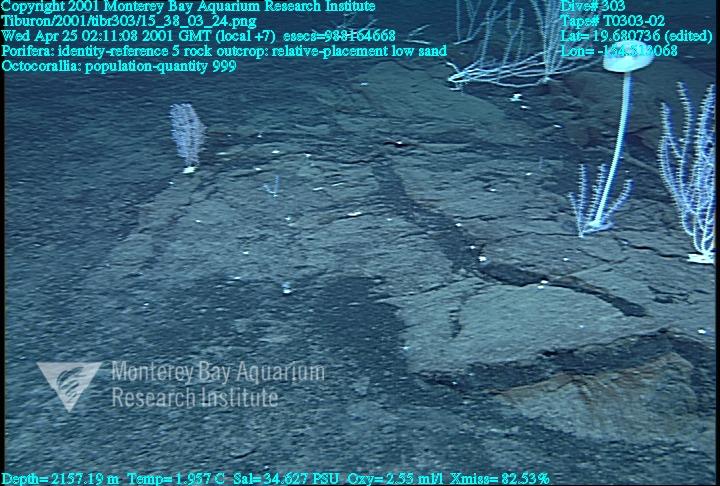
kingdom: Animalia
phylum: Porifera
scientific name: Porifera
